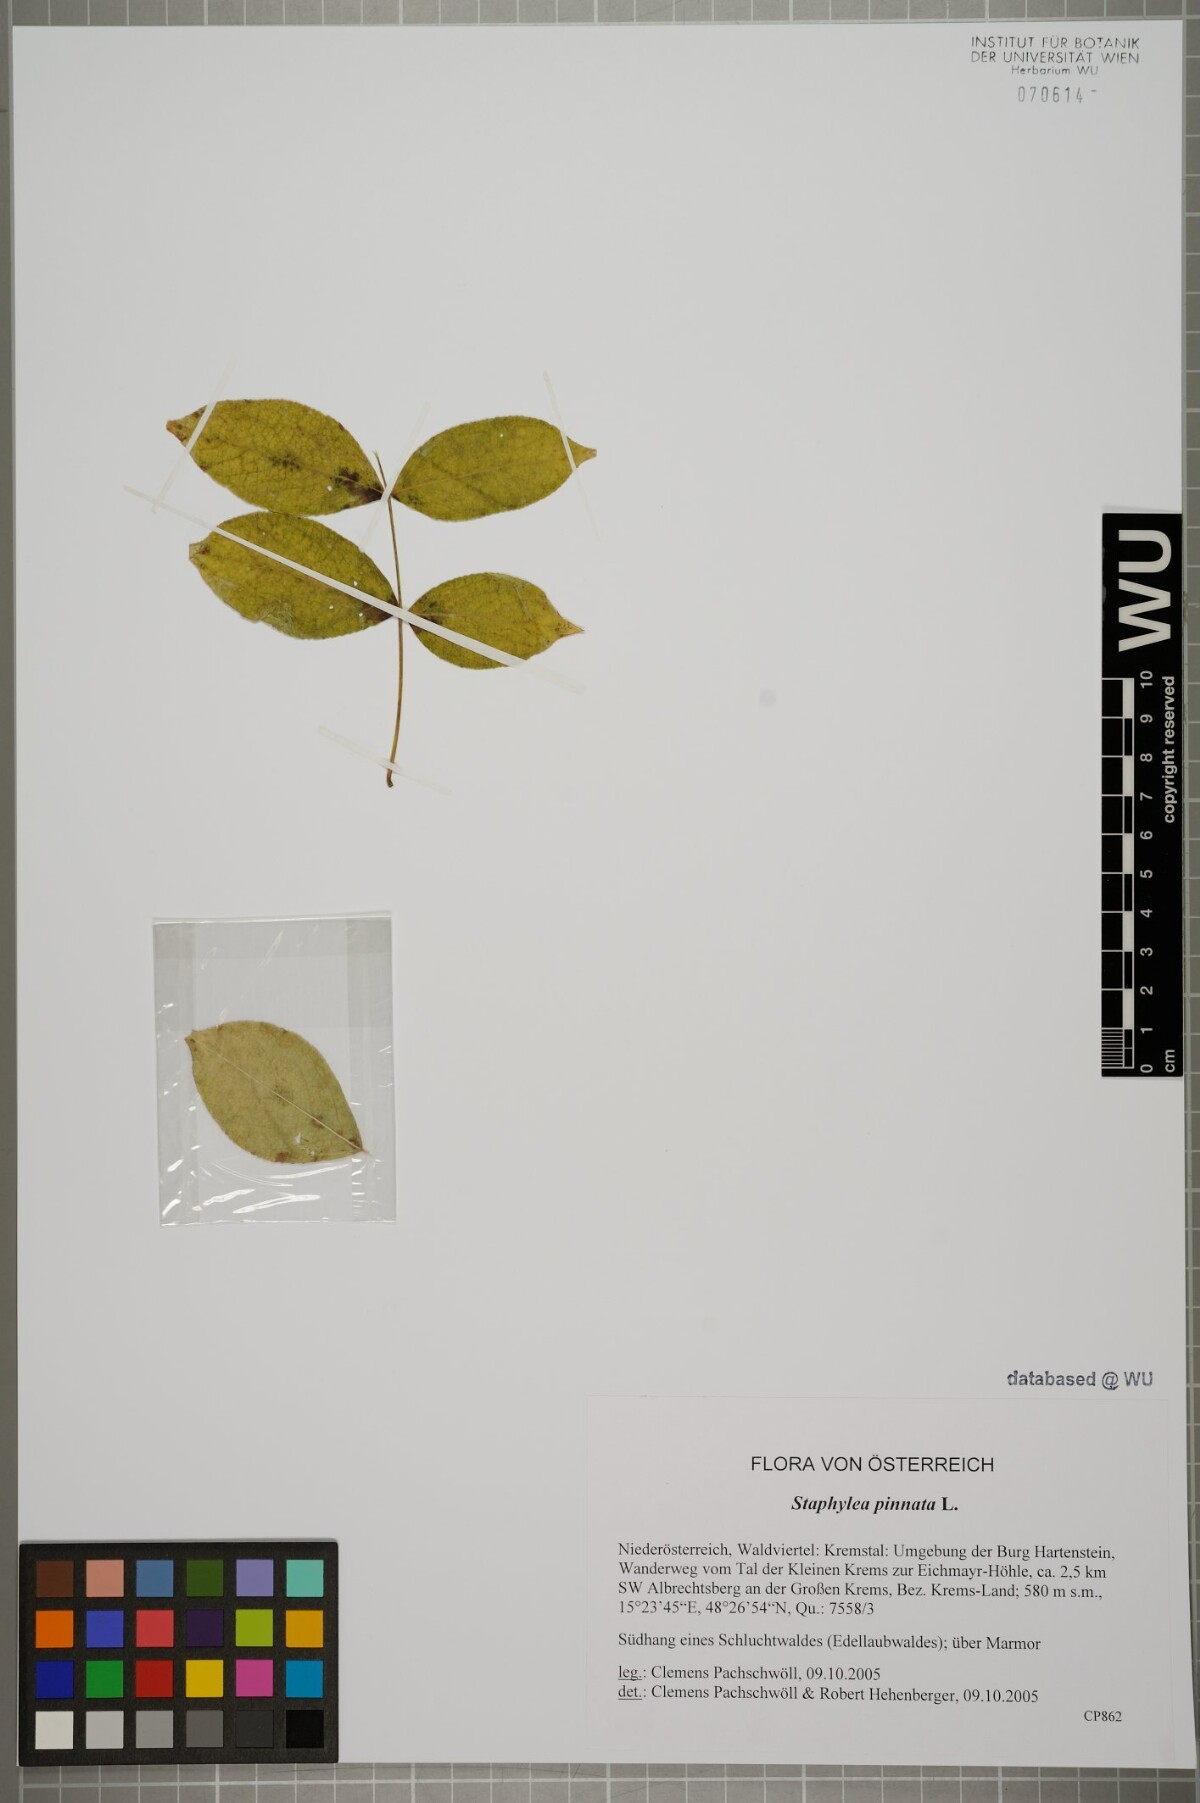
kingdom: Plantae
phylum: Tracheophyta
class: Magnoliopsida
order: Crossosomatales
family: Staphyleaceae
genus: Staphylea
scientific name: Staphylea pinnata
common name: Bladdernut
